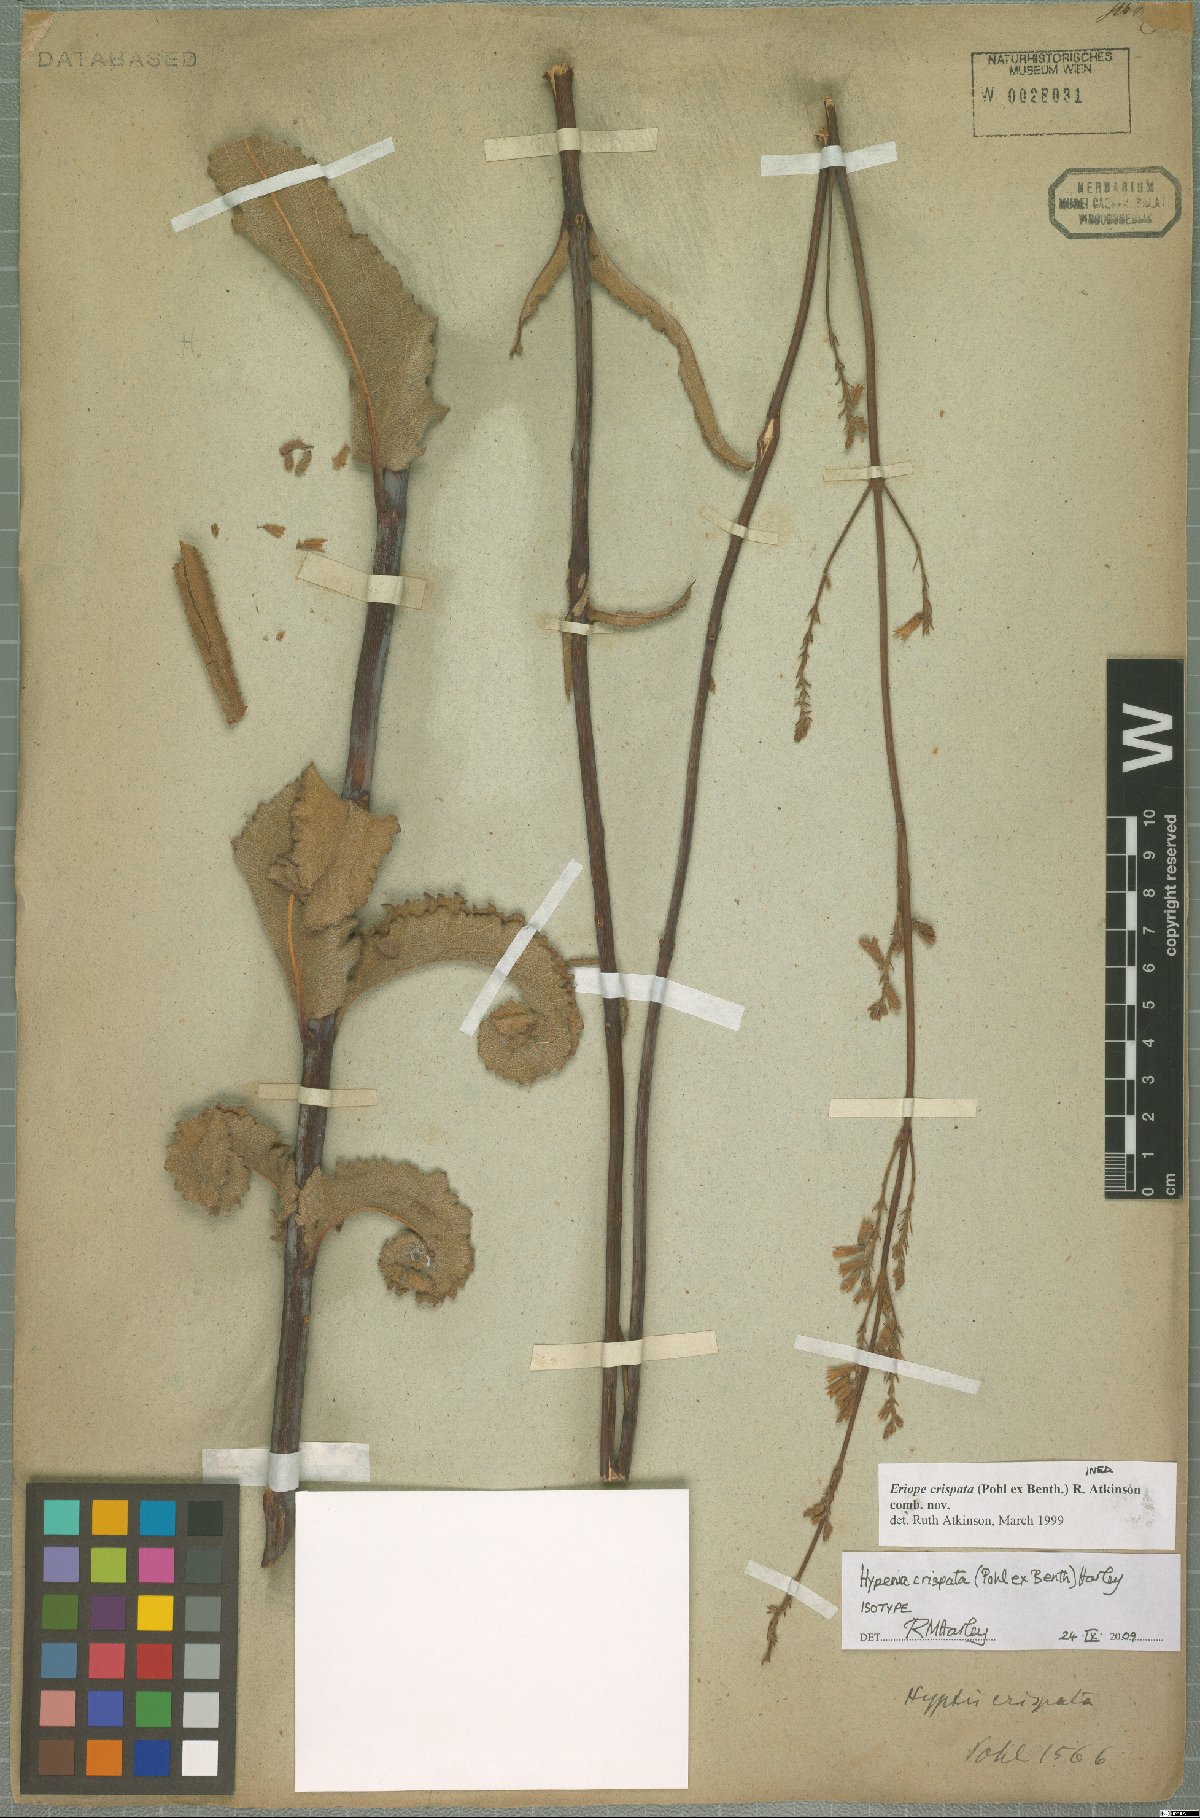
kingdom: Plantae
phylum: Tracheophyta
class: Magnoliopsida
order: Lamiales
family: Lamiaceae
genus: Hypenia
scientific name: Hypenia crispata
